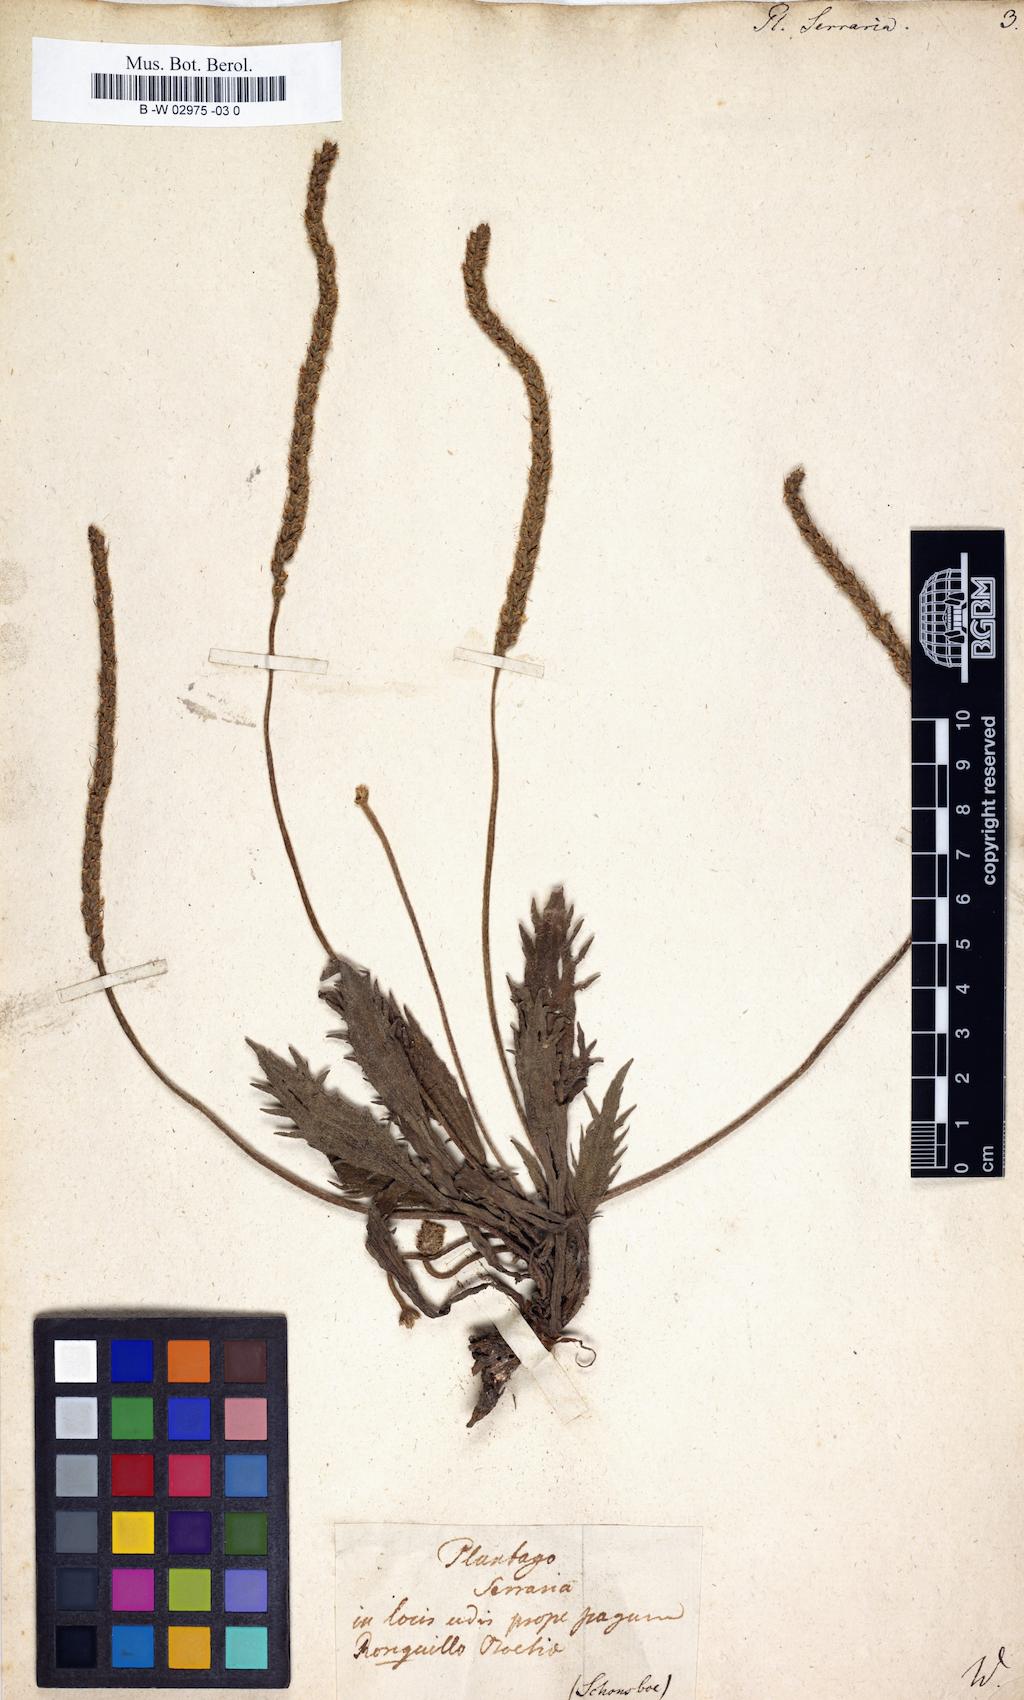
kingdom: Plantae
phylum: Tracheophyta
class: Magnoliopsida
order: Lamiales
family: Plantaginaceae
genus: Plantago
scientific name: Plantago serraria
